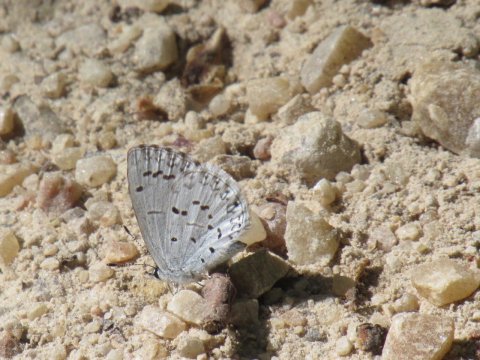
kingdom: Animalia
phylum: Arthropoda
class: Insecta
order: Lepidoptera
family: Lycaenidae
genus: Celastrina
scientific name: Celastrina lucia
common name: Northern Spring Azure
